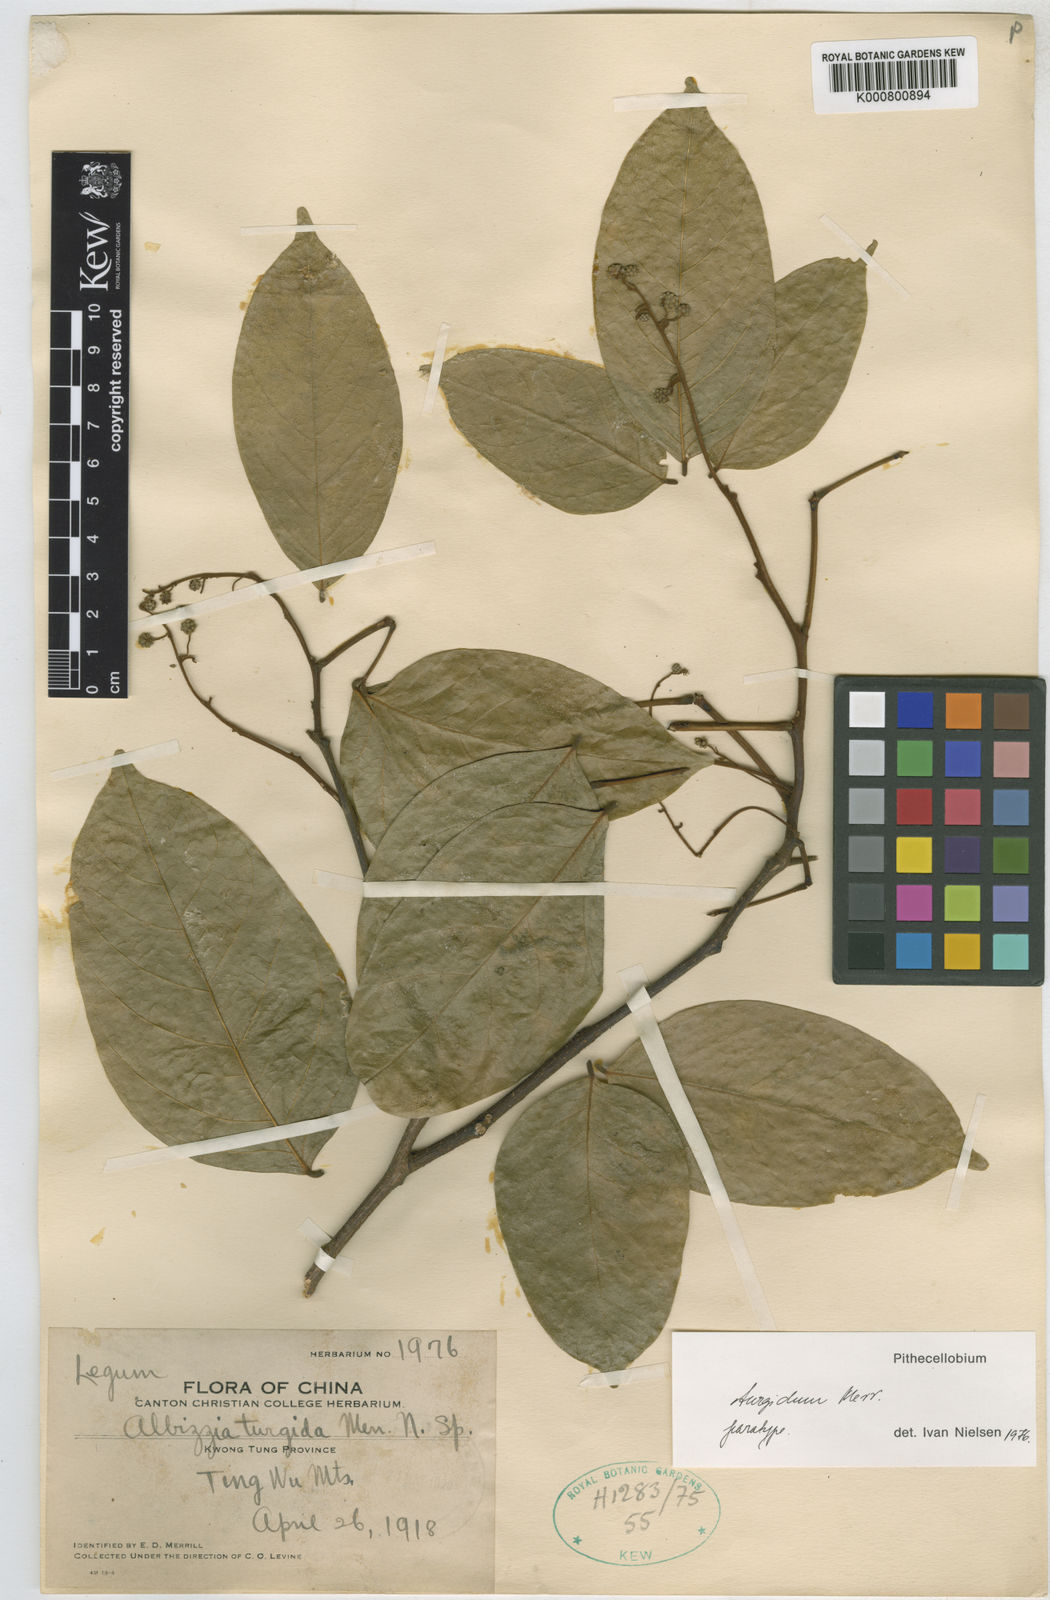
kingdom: Plantae
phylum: Tracheophyta
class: Magnoliopsida
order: Fabales
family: Fabaceae
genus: Archidendron
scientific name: Archidendron turgidum
